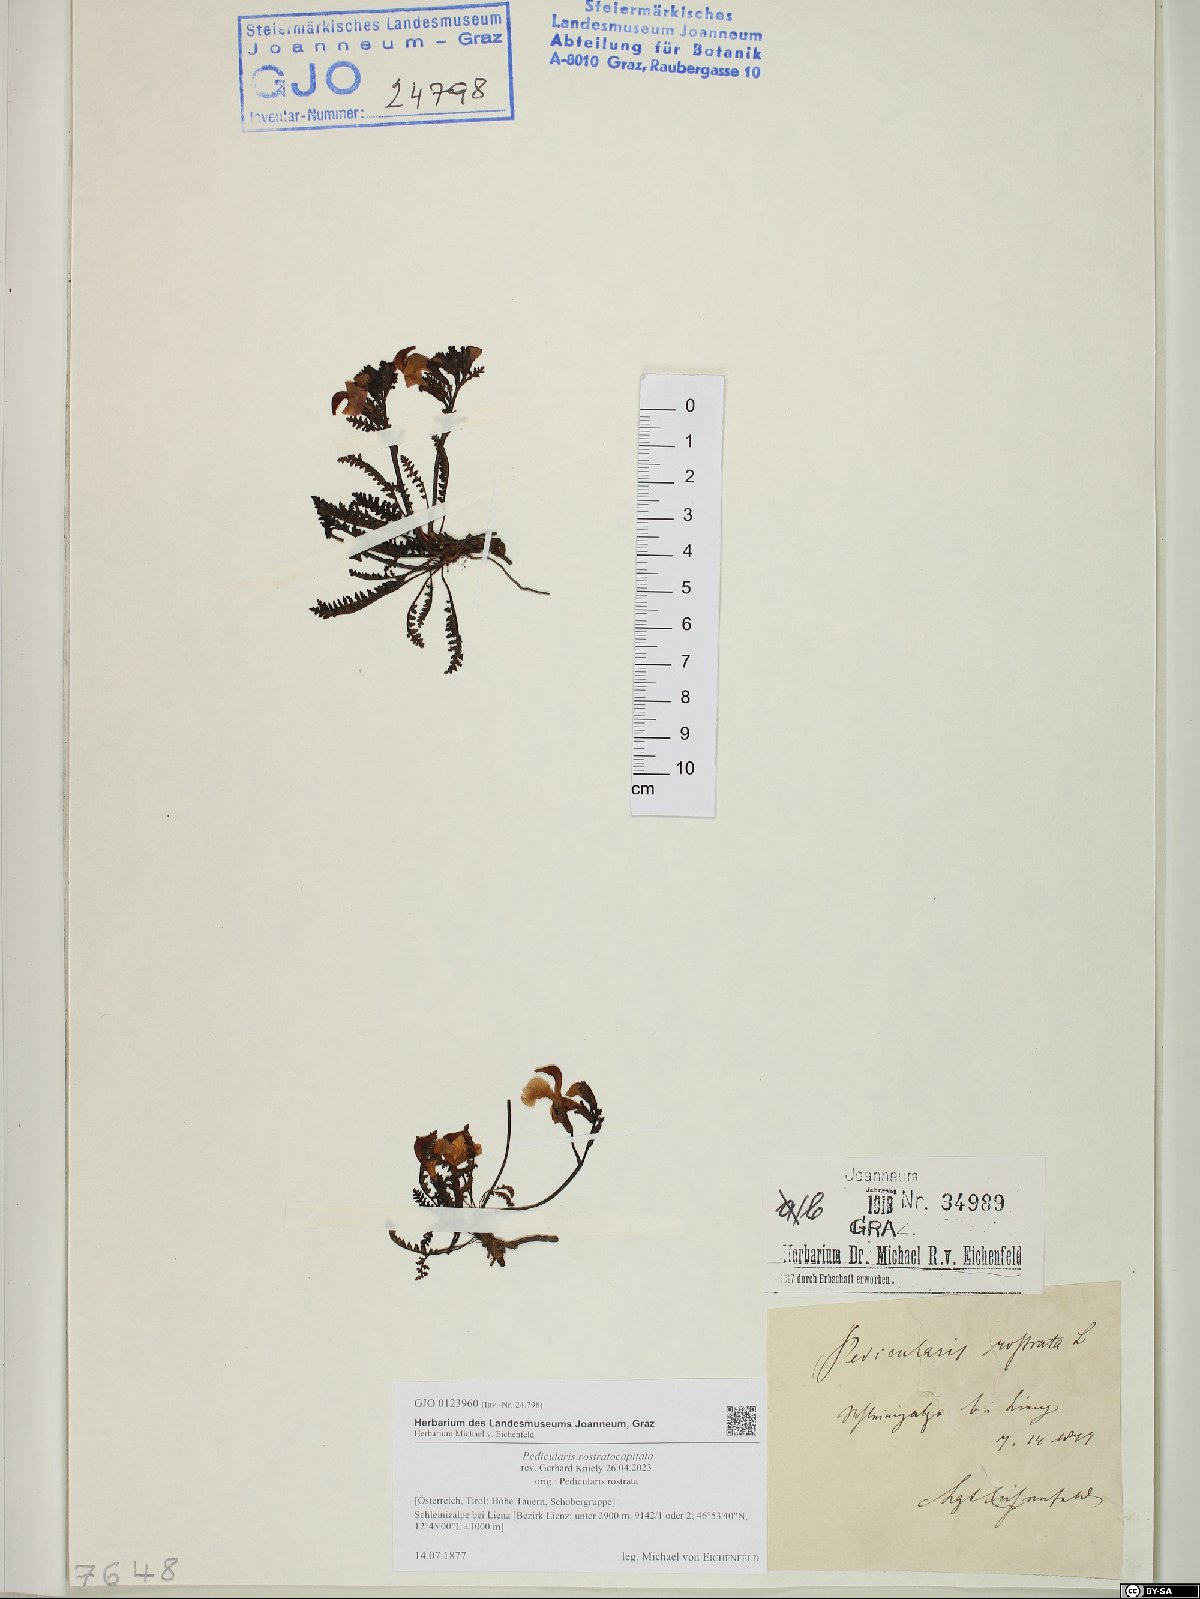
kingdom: Plantae
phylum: Tracheophyta
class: Magnoliopsida
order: Lamiales
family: Orobanchaceae
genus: Pedicularis
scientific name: Pedicularis rostratocapitata
